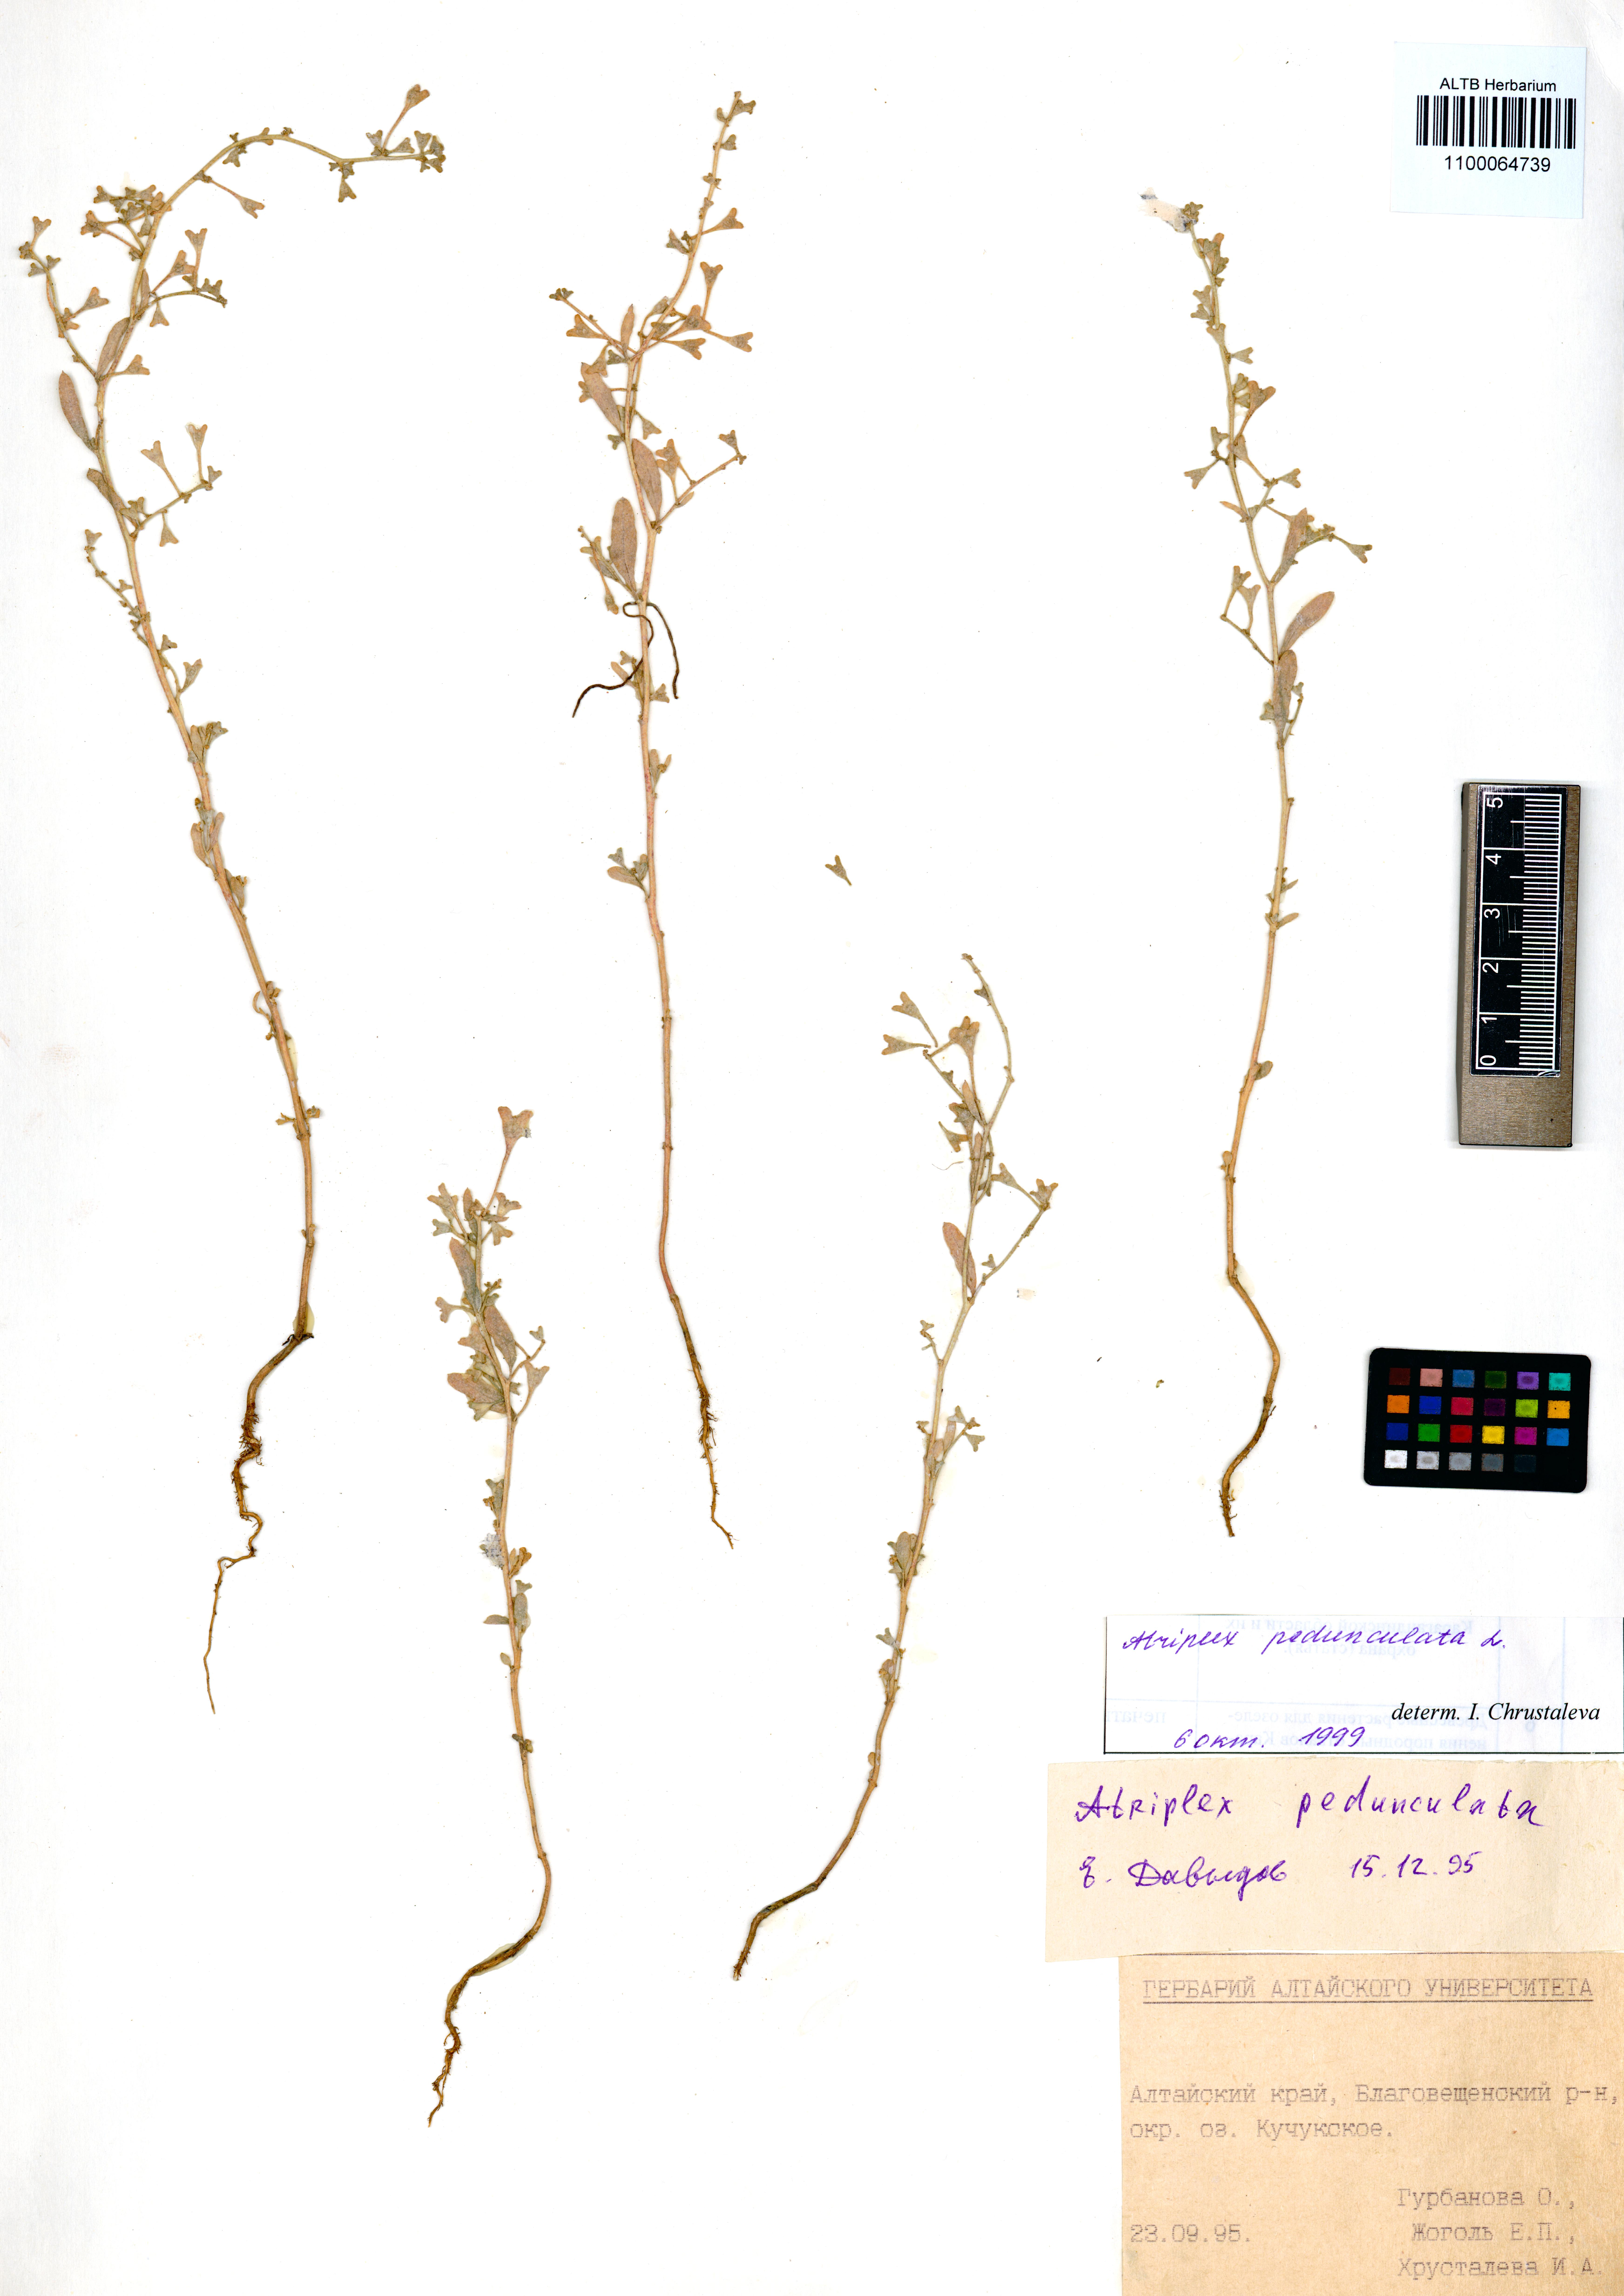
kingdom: Plantae
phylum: Tracheophyta
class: Magnoliopsida
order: Caryophyllales
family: Amaranthaceae
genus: Halimione
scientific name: Halimione pedunculata
